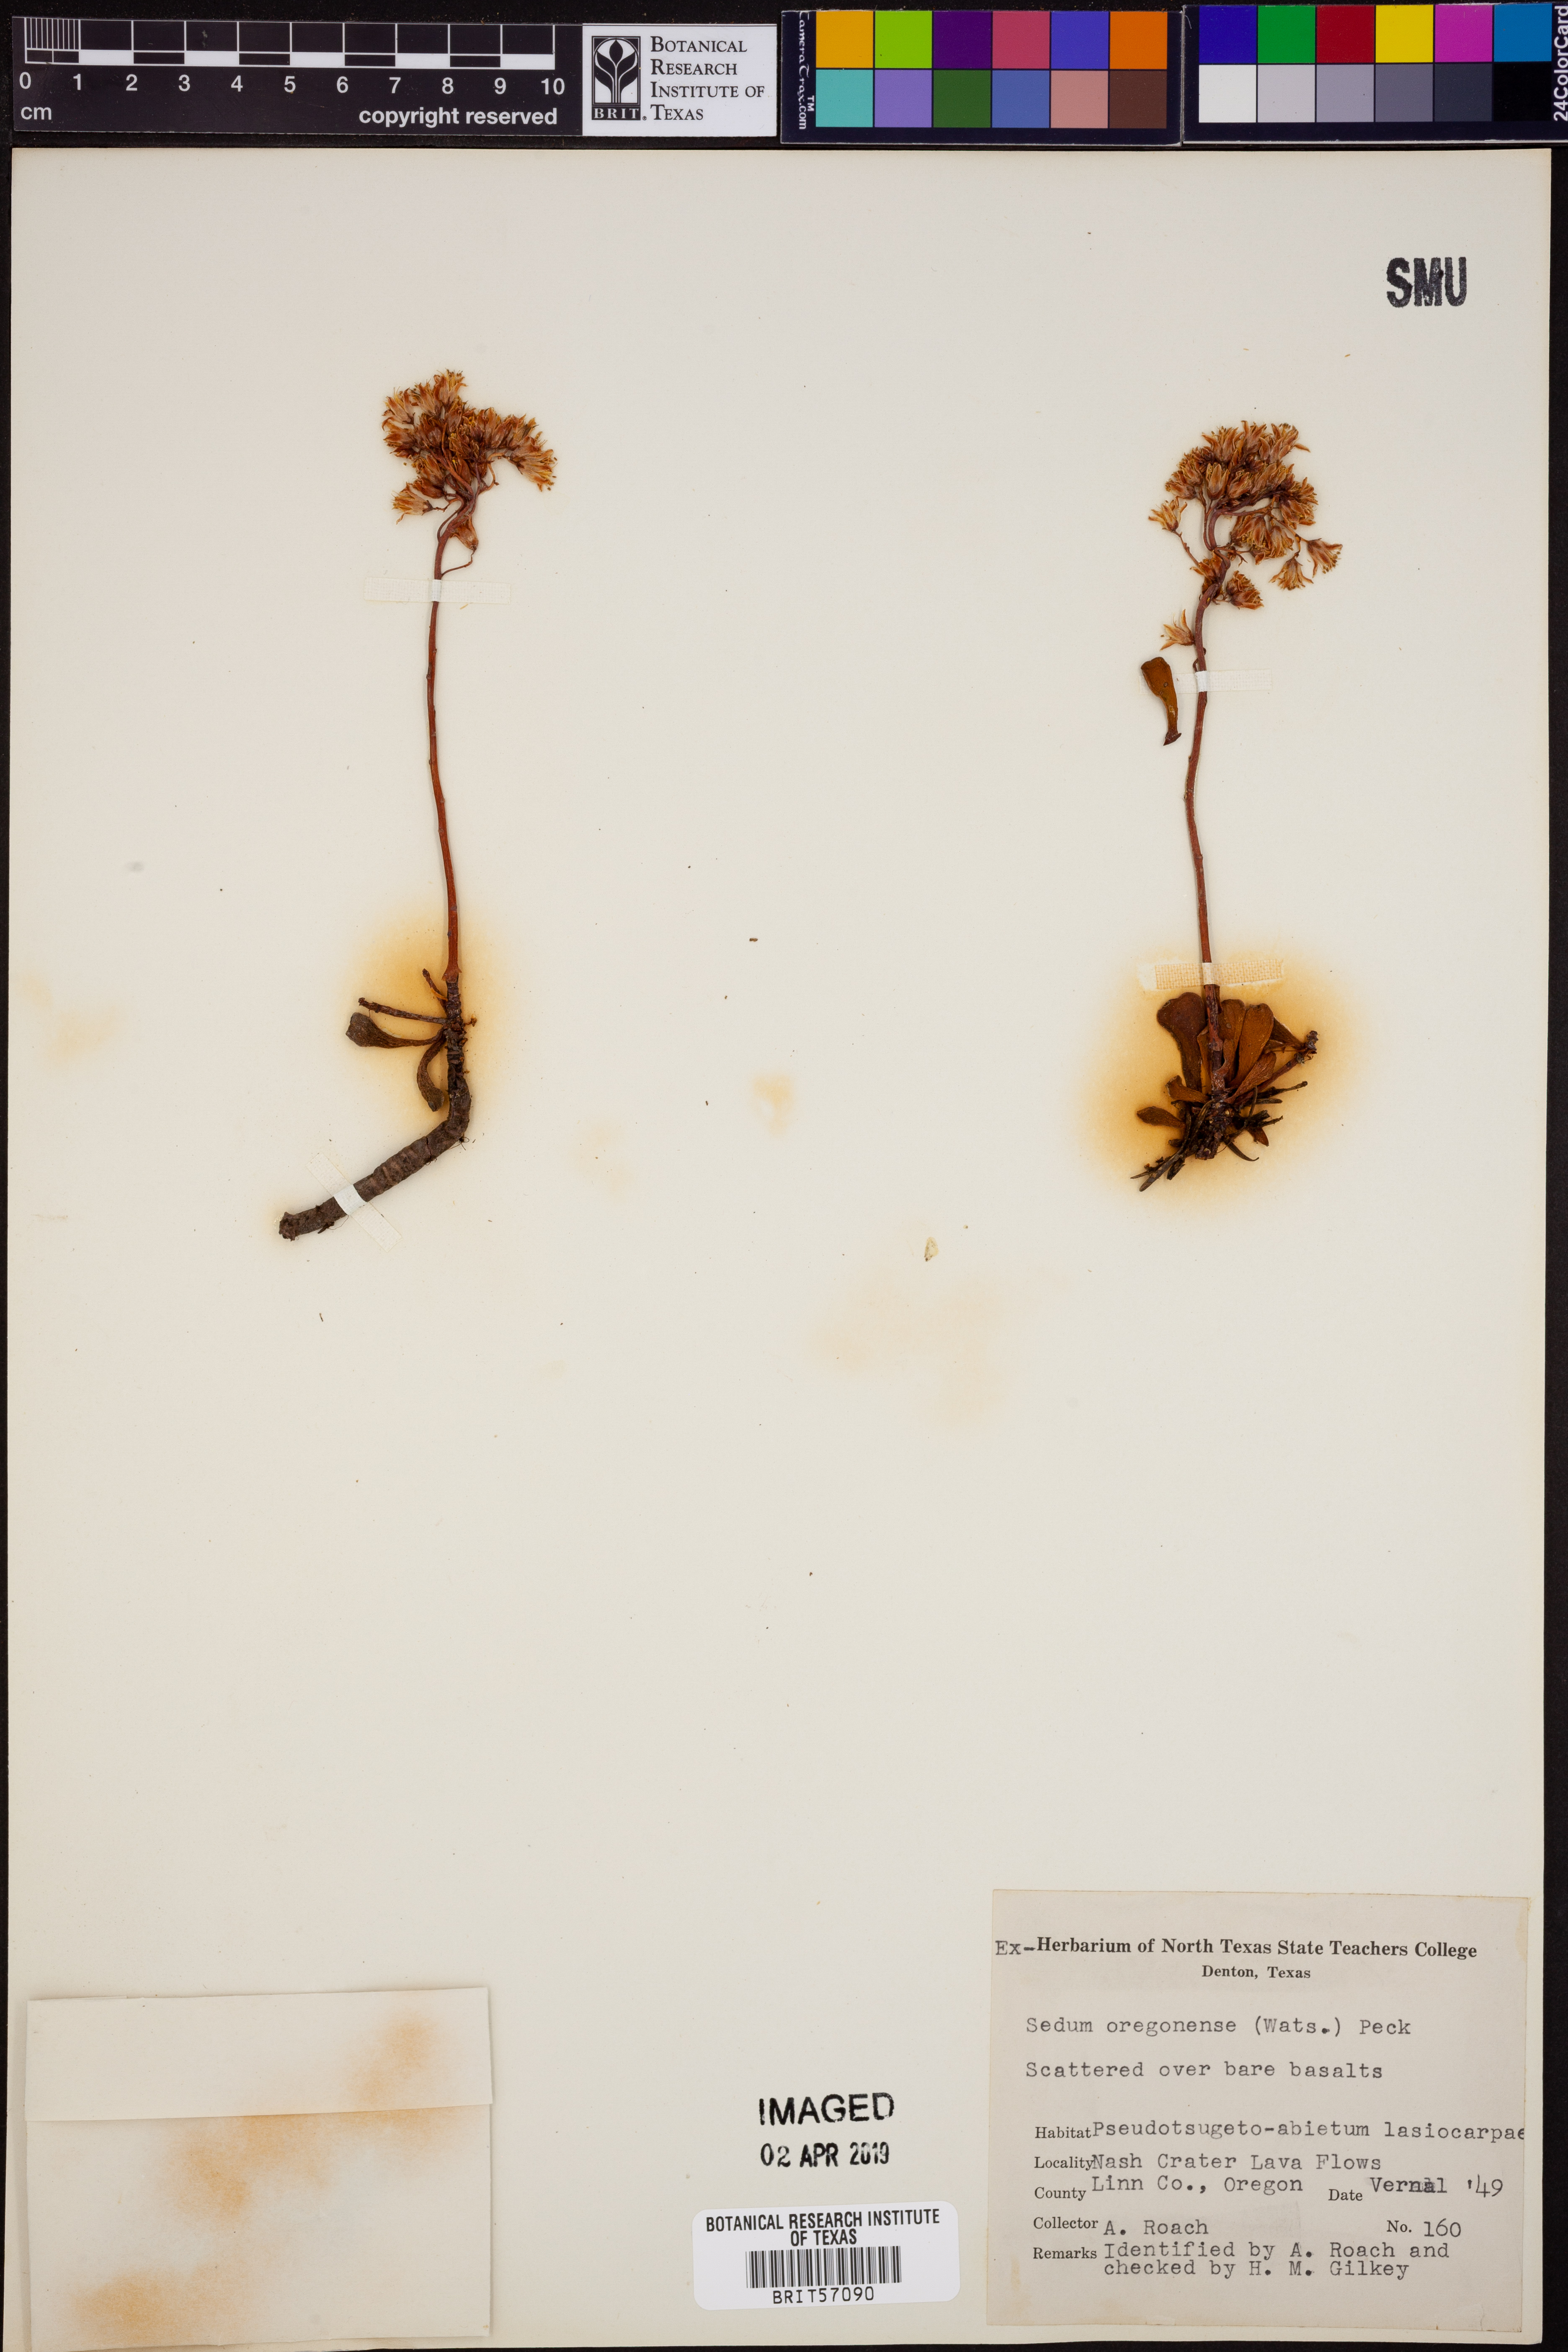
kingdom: Plantae
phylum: Tracheophyta
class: Magnoliopsida
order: Saxifragales
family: Crassulaceae
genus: Sedum
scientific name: Sedum oregonense
